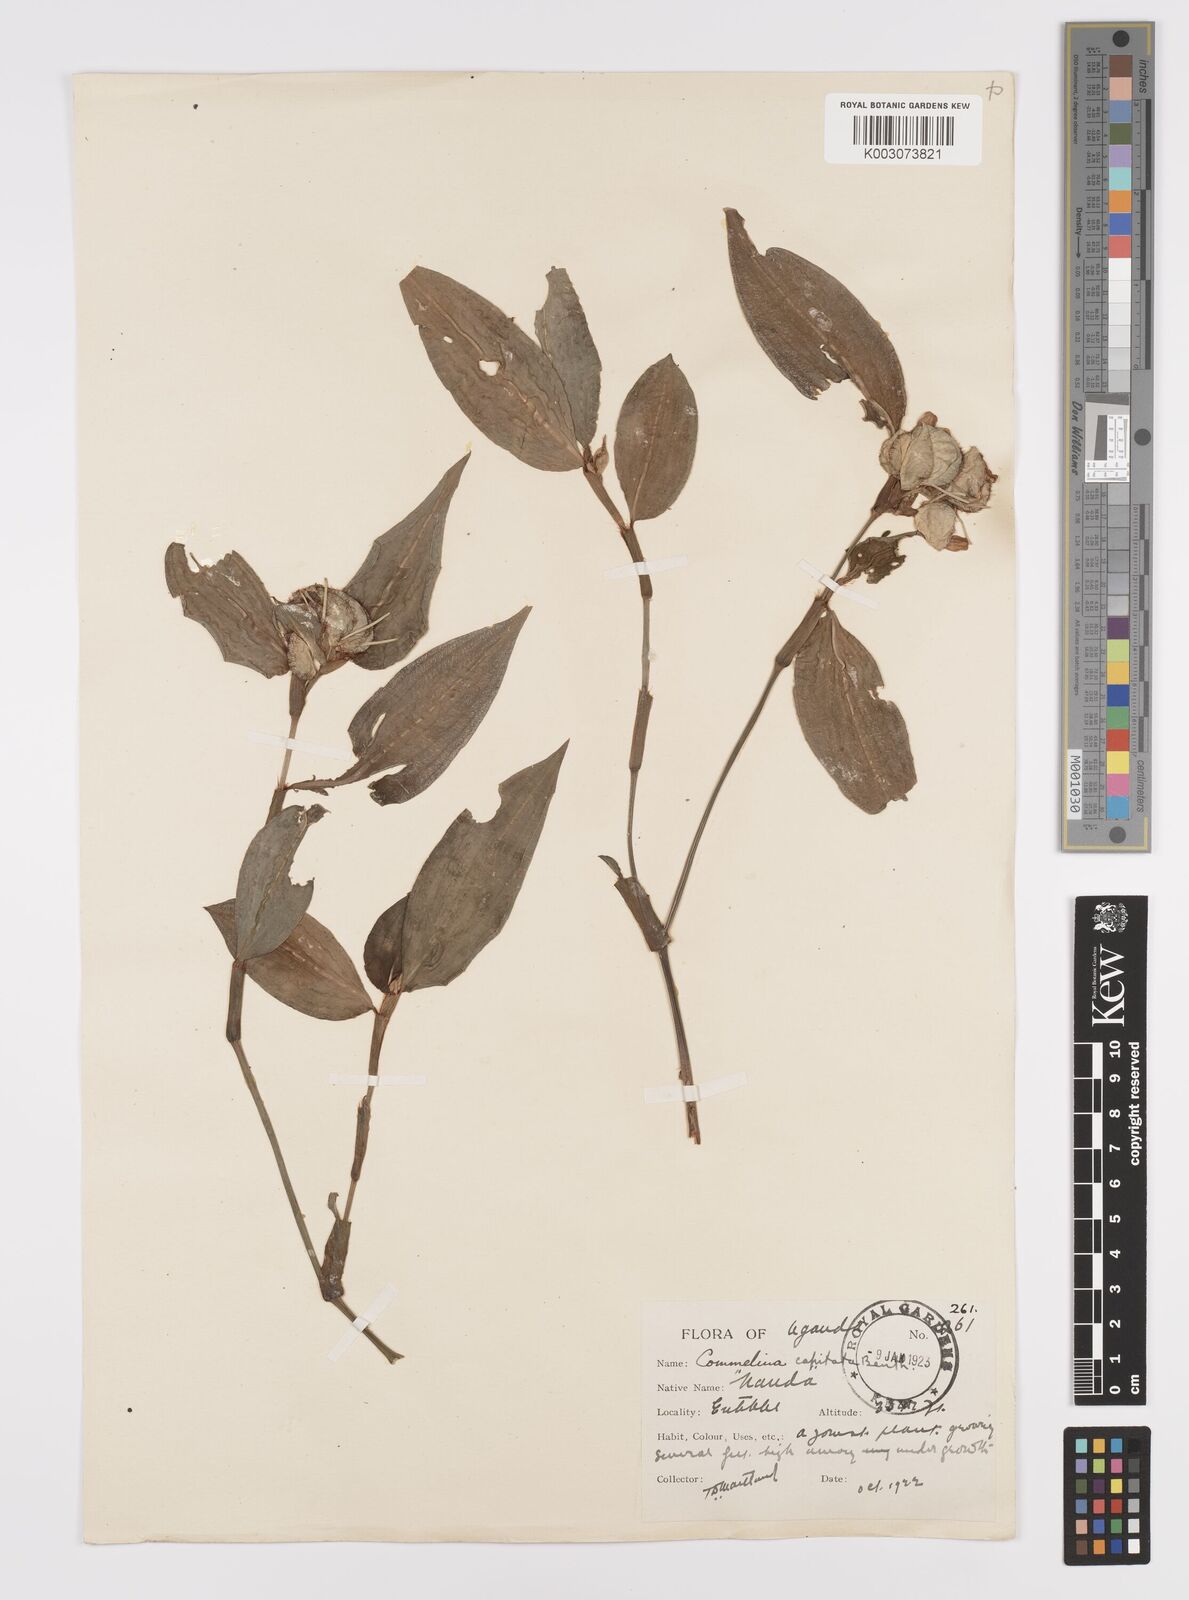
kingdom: Plantae
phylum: Tracheophyta
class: Liliopsida
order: Commelinales
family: Commelinaceae
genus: Commelina
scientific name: Commelina capitata
